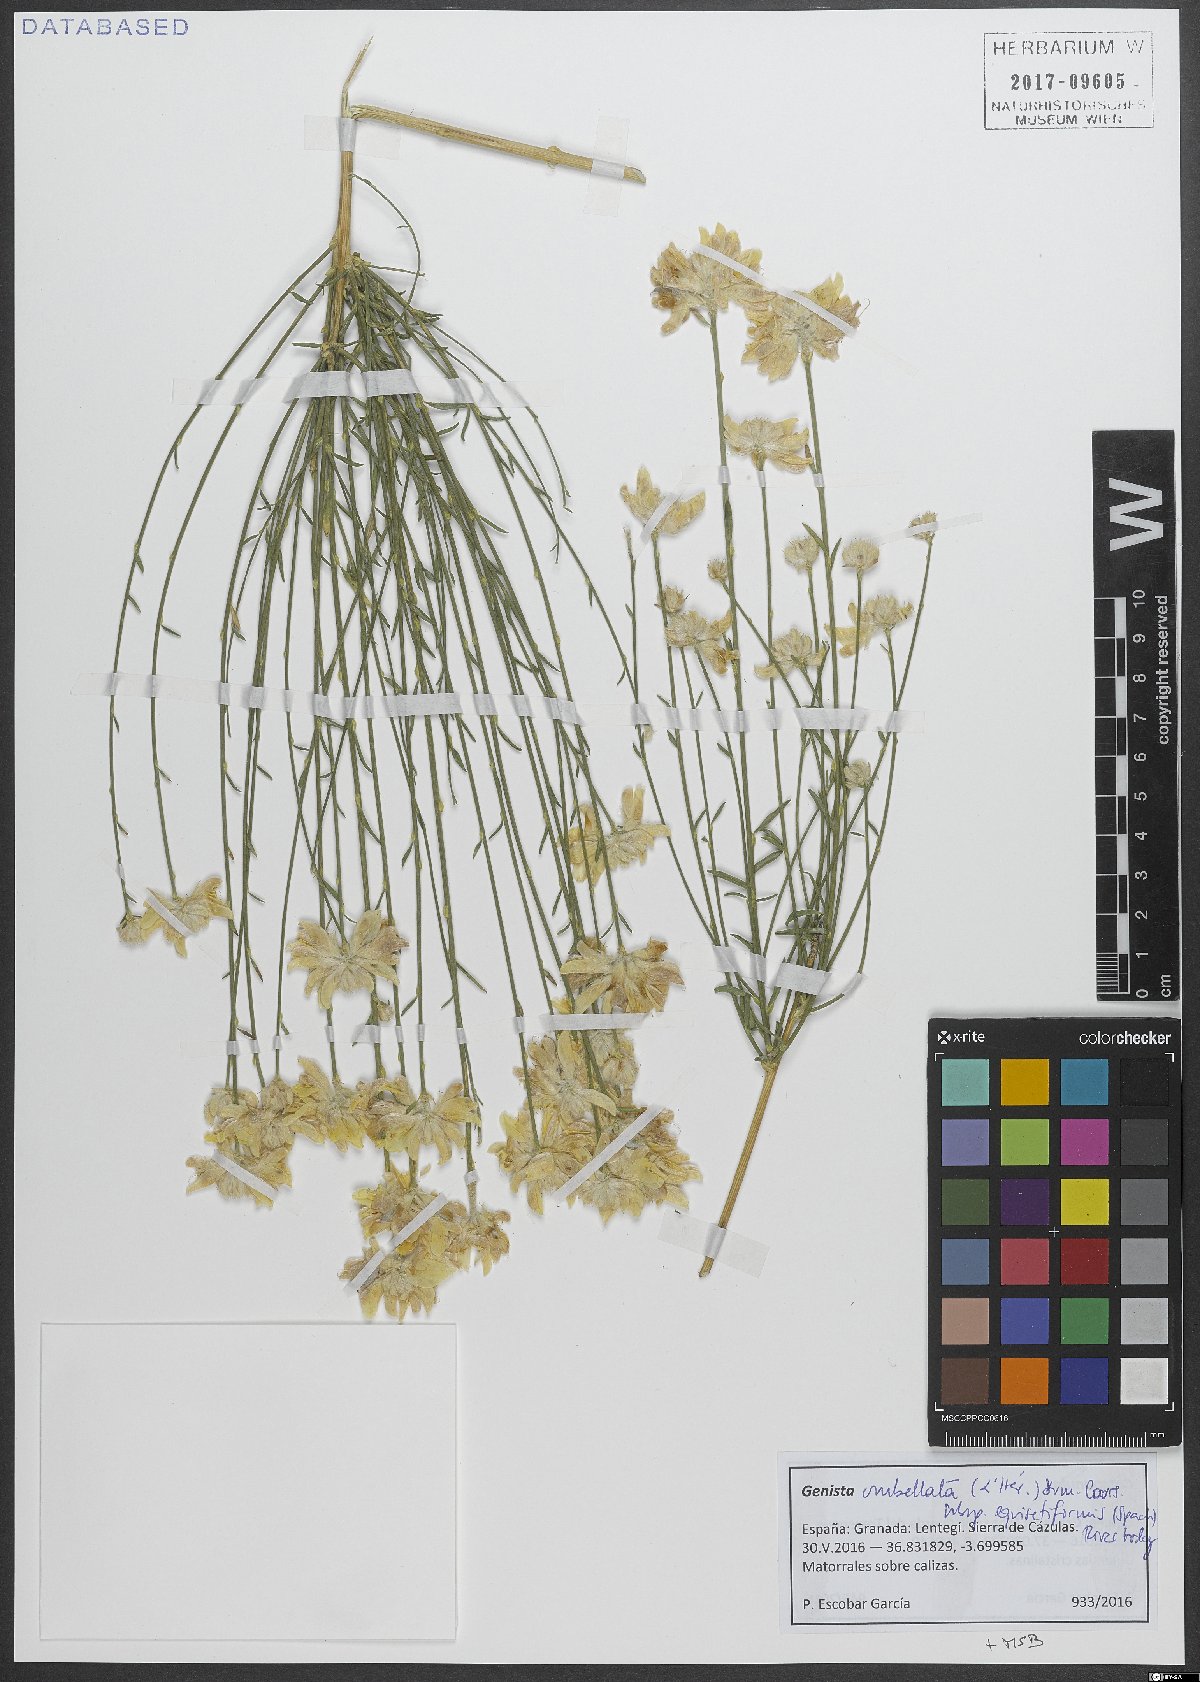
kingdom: Plantae
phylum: Tracheophyta
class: Magnoliopsida
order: Fabales
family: Fabaceae
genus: Genista
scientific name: Genista umbellata
